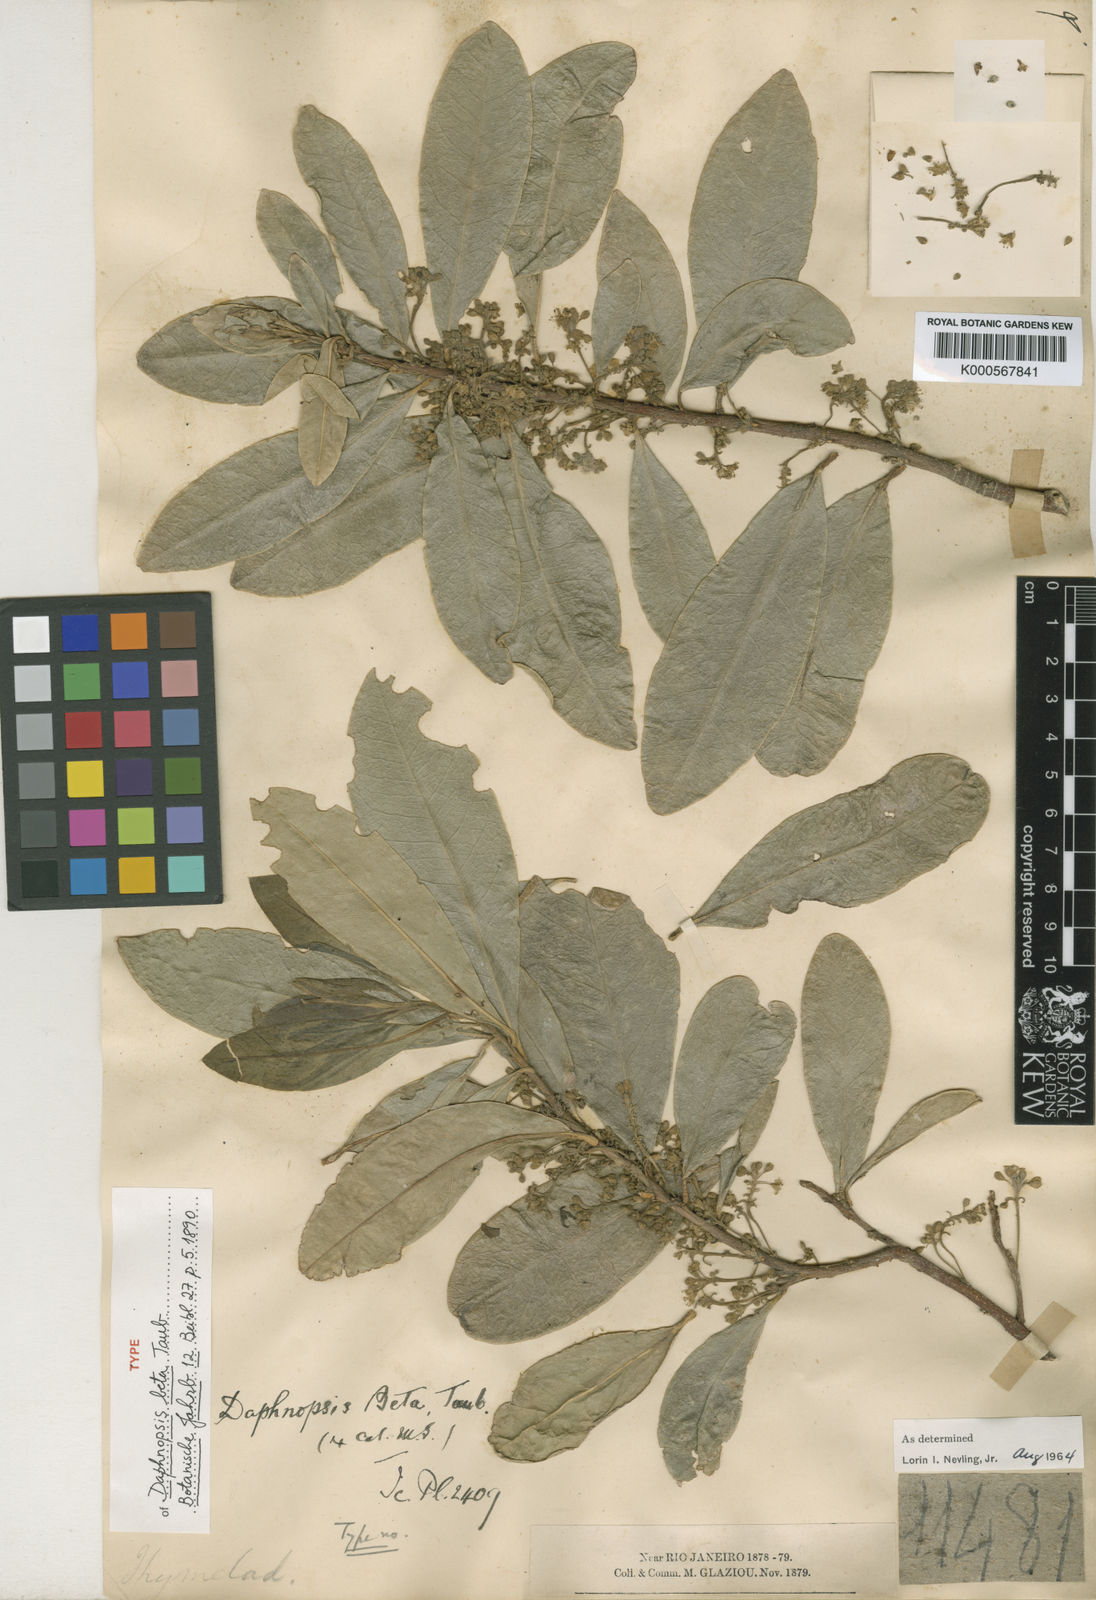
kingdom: Plantae
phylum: Tracheophyta
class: Magnoliopsida
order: Malvales
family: Thymelaeaceae
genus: Daphnopsis
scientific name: Daphnopsis fasciculata
